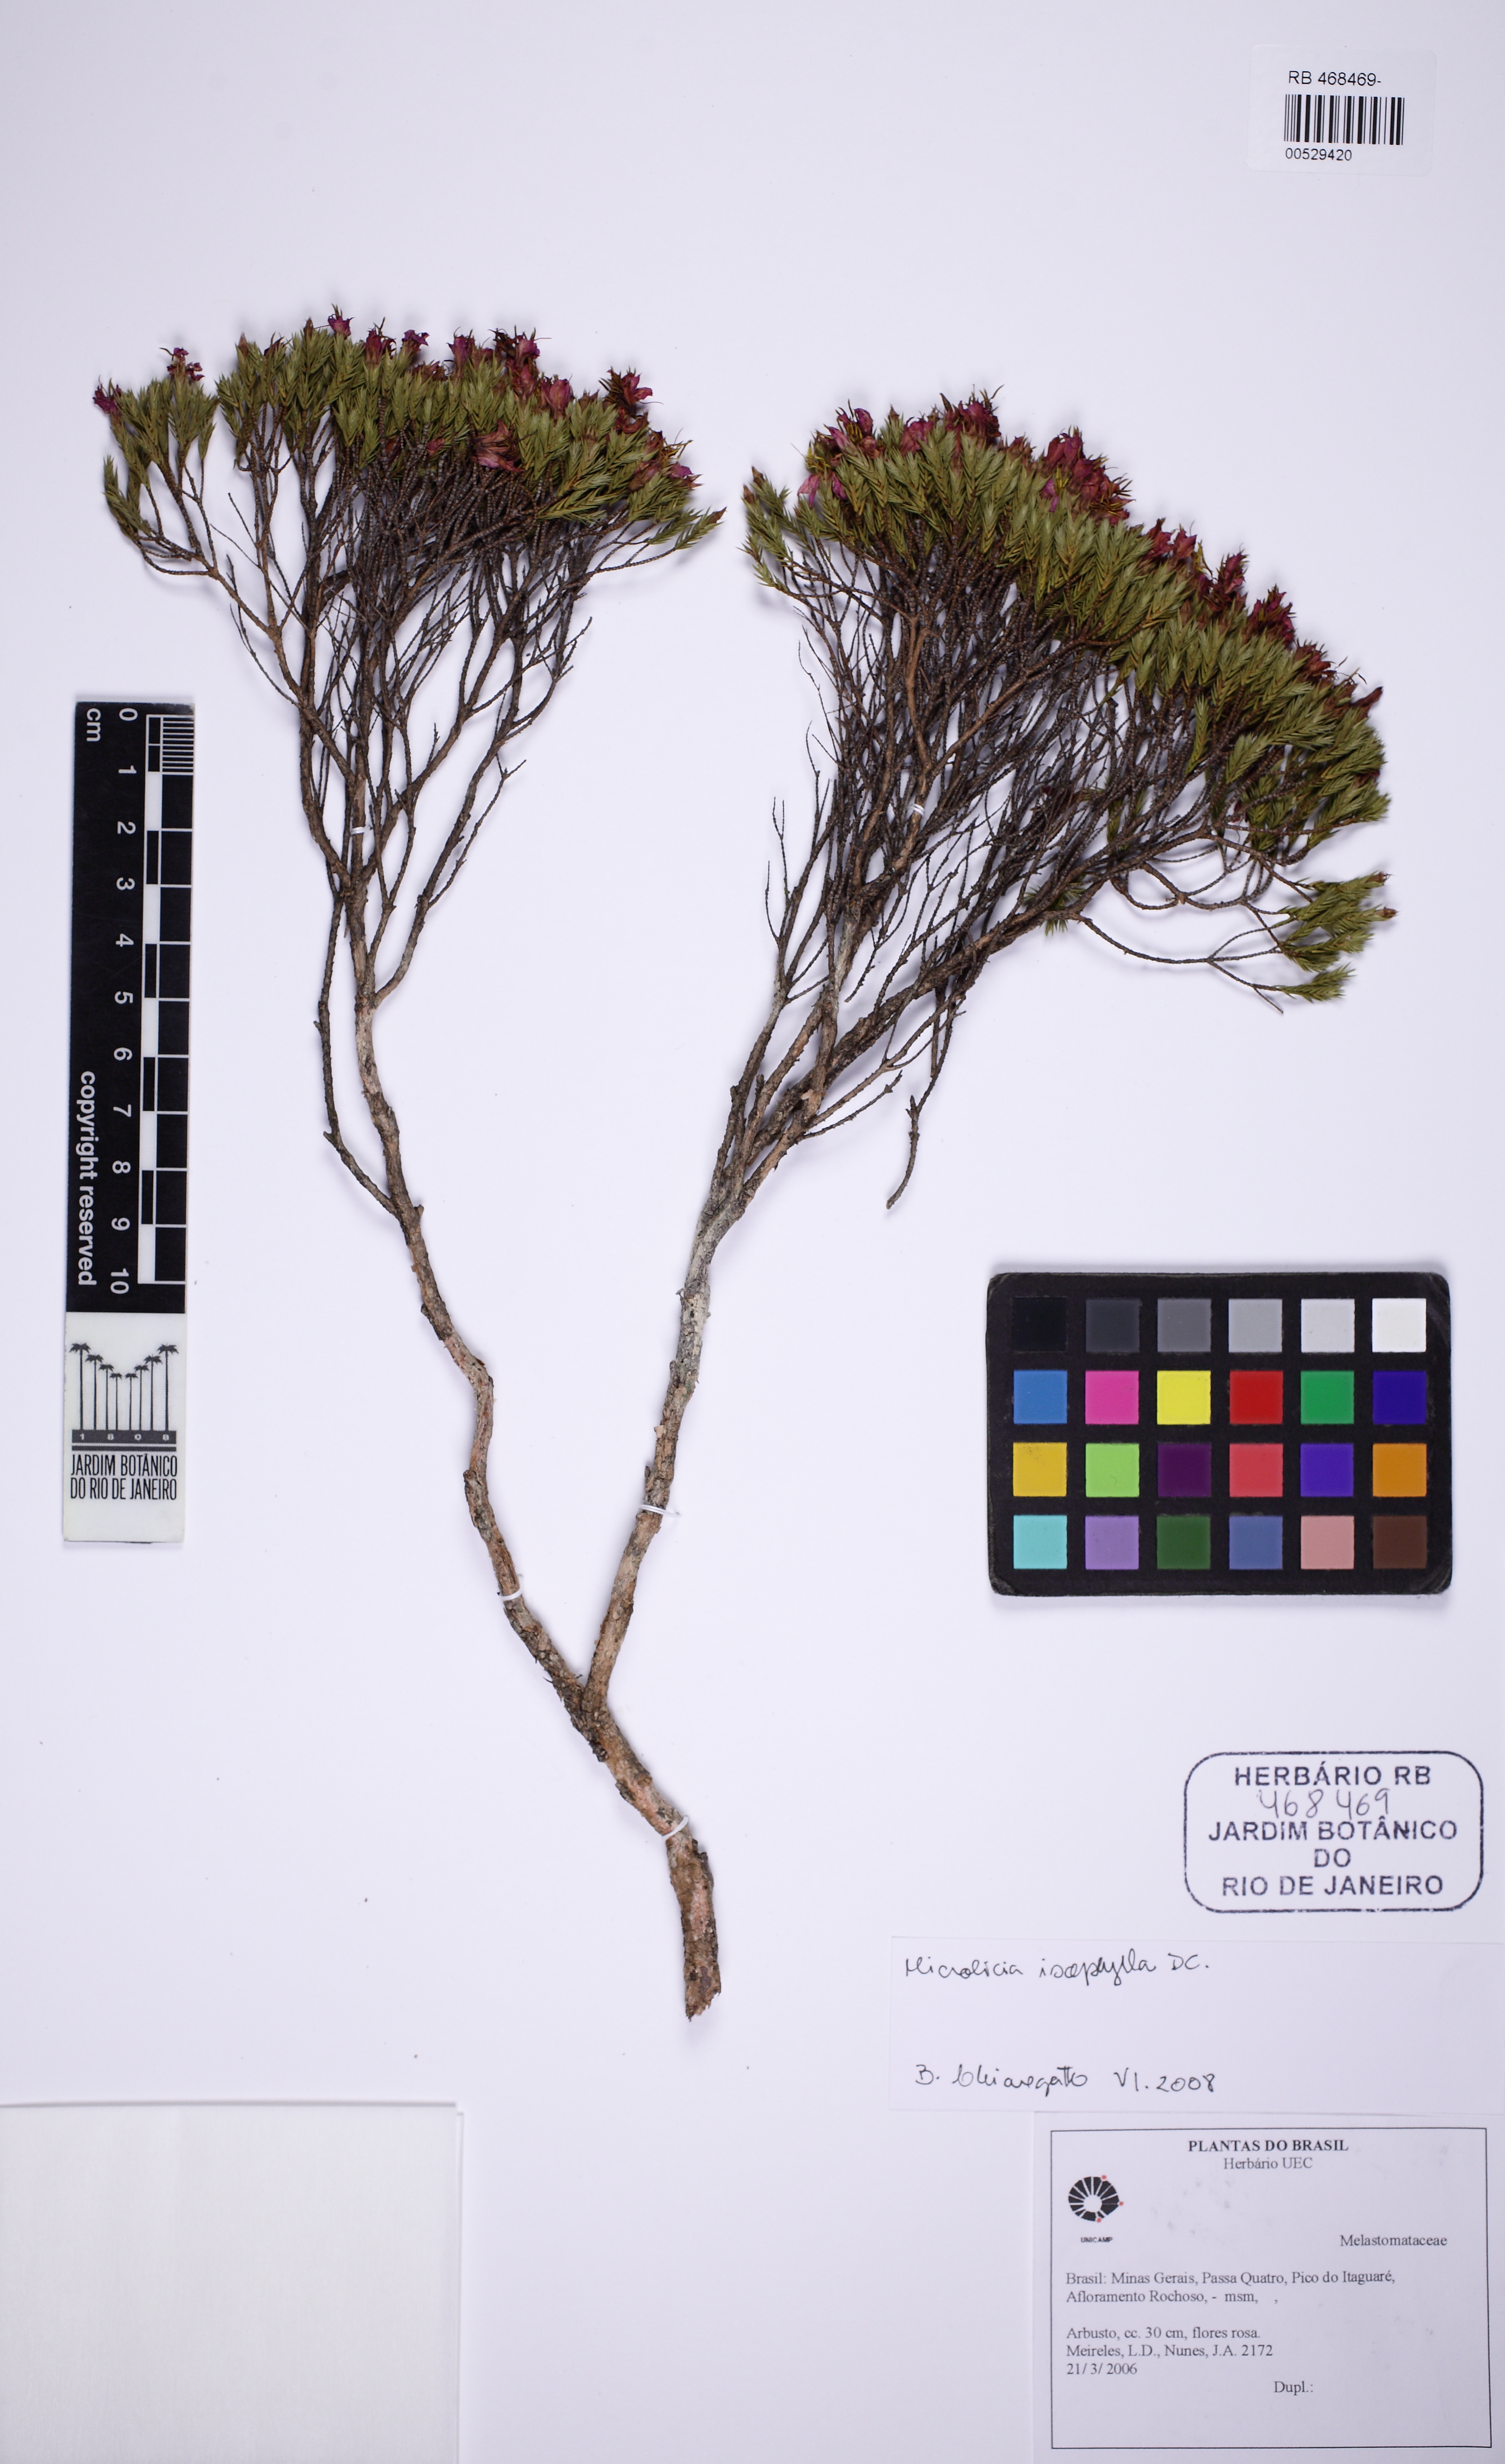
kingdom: Plantae
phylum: Tracheophyta
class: Magnoliopsida
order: Myrtales
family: Melastomataceae
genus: Microlicia
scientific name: Microlicia glaziovii
